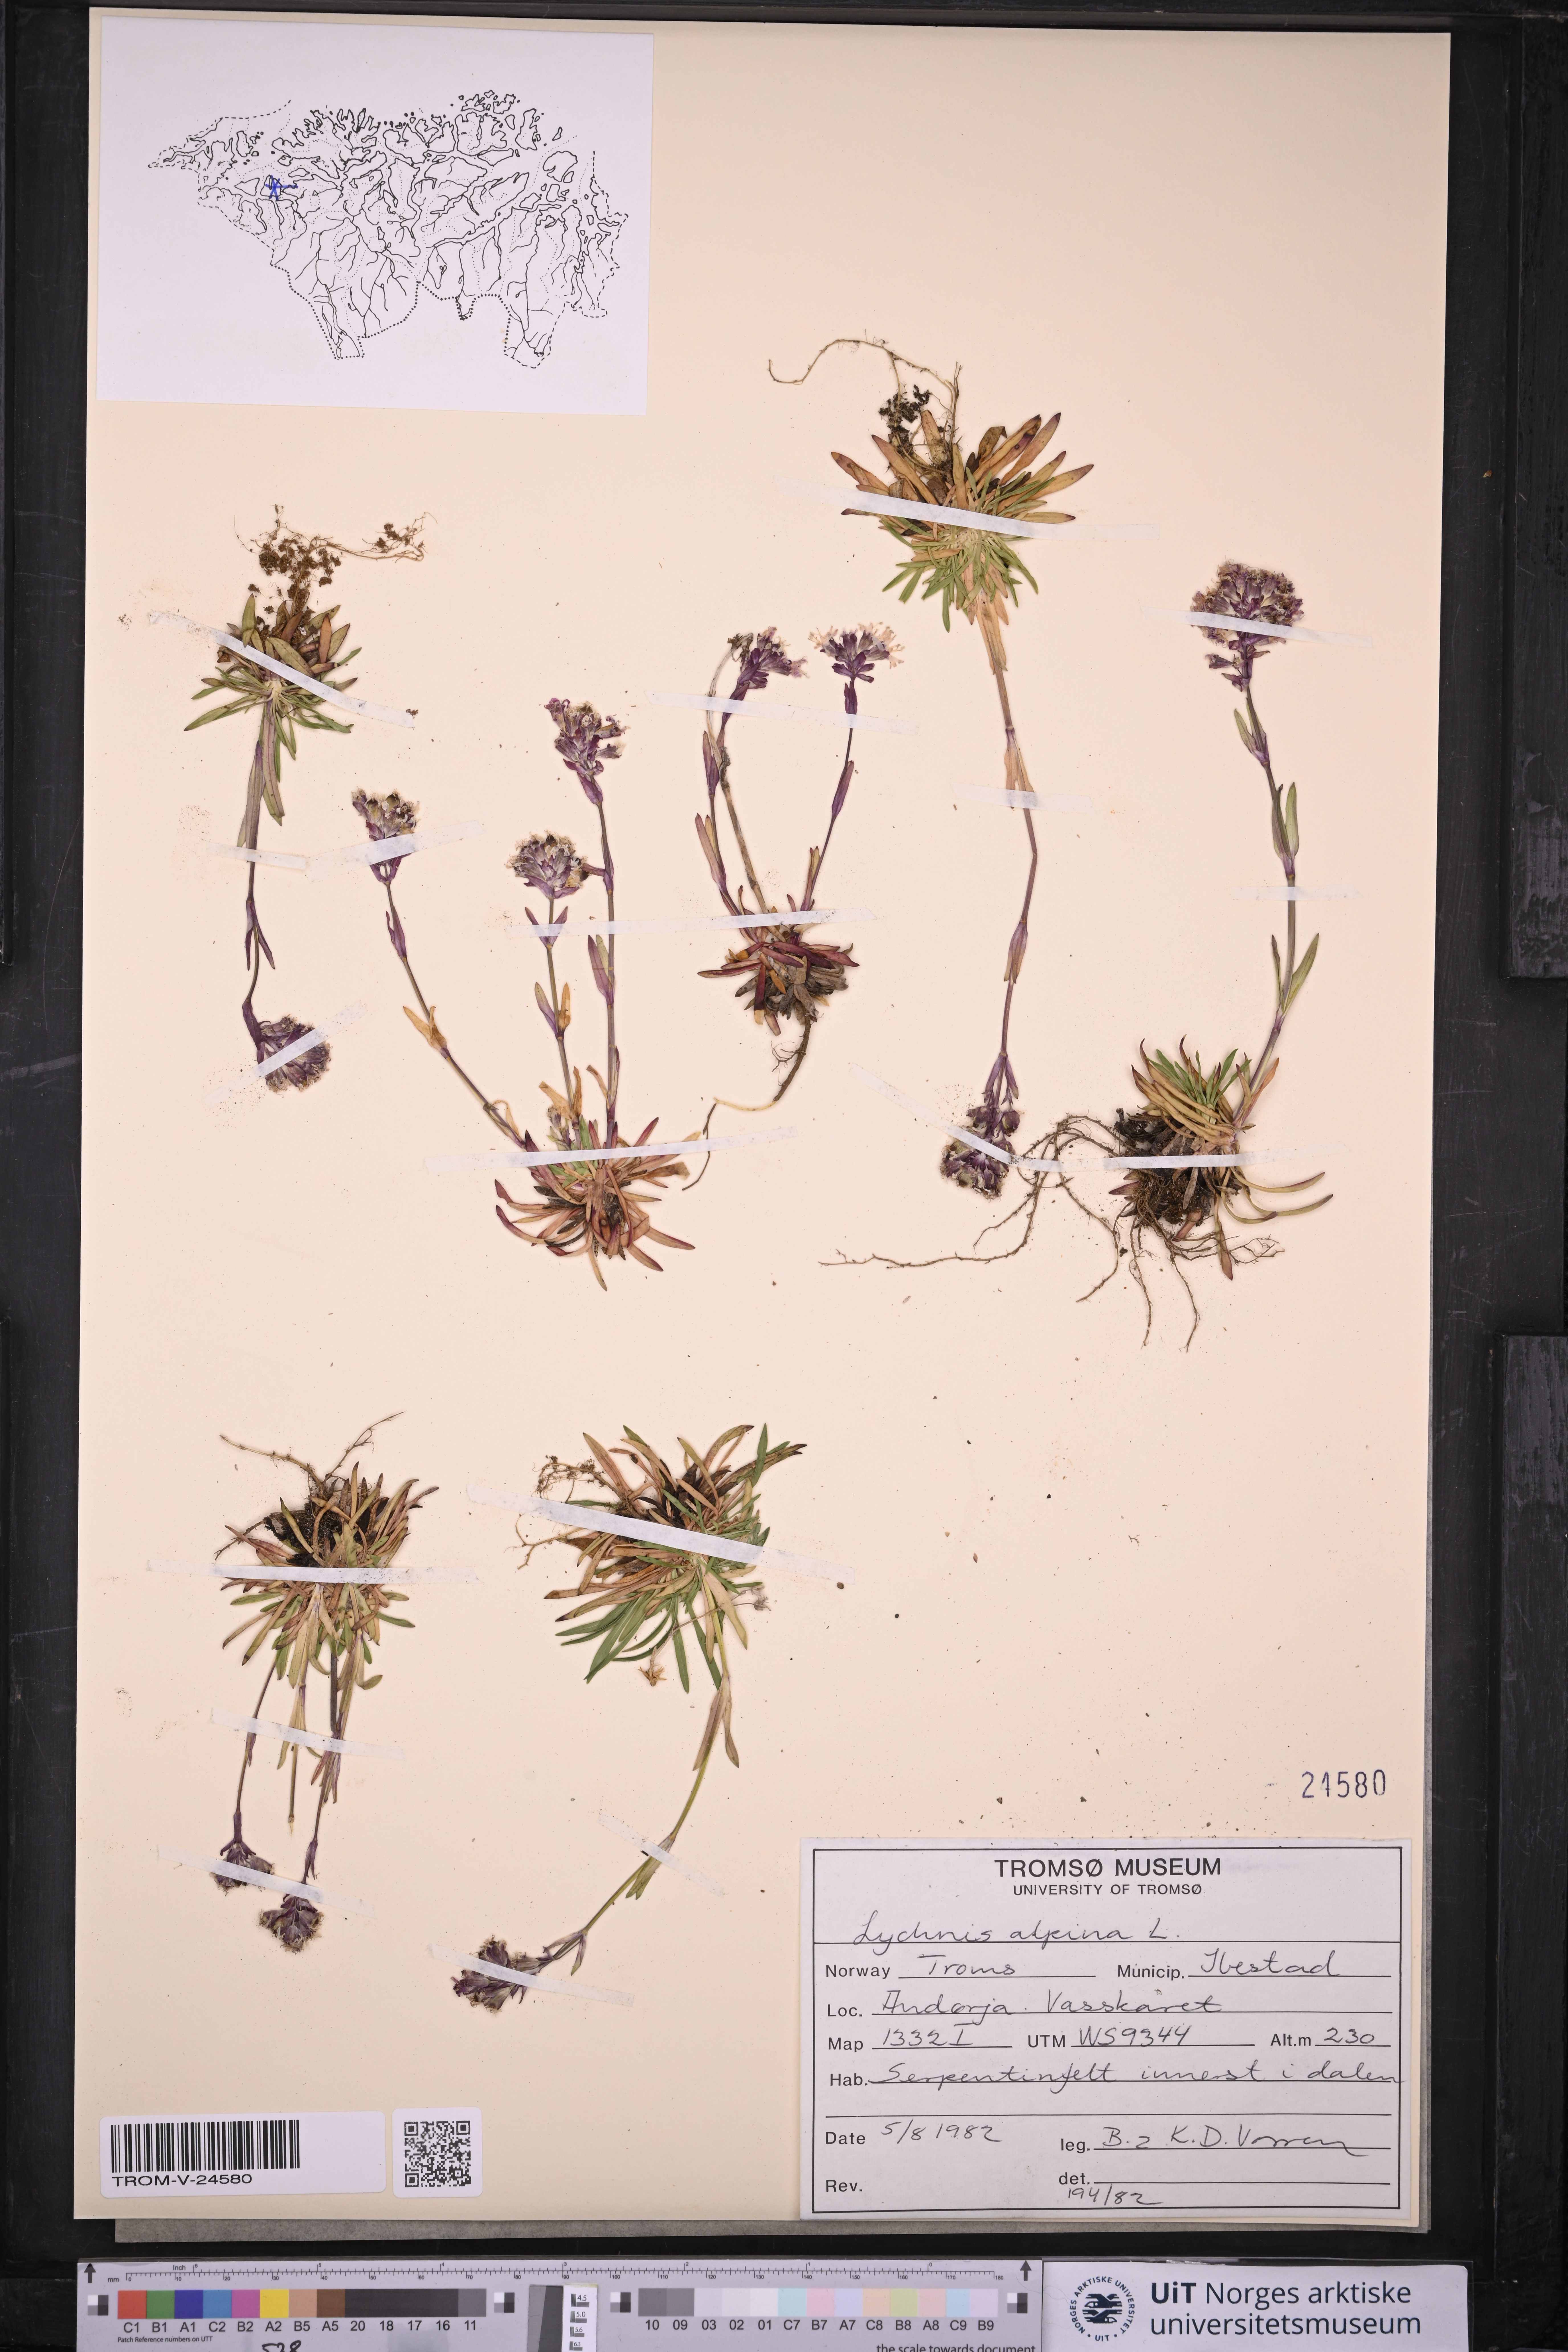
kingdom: Plantae
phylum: Tracheophyta
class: Magnoliopsida
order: Caryophyllales
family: Caryophyllaceae
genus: Viscaria
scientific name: Viscaria alpina
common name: Alpine campion
